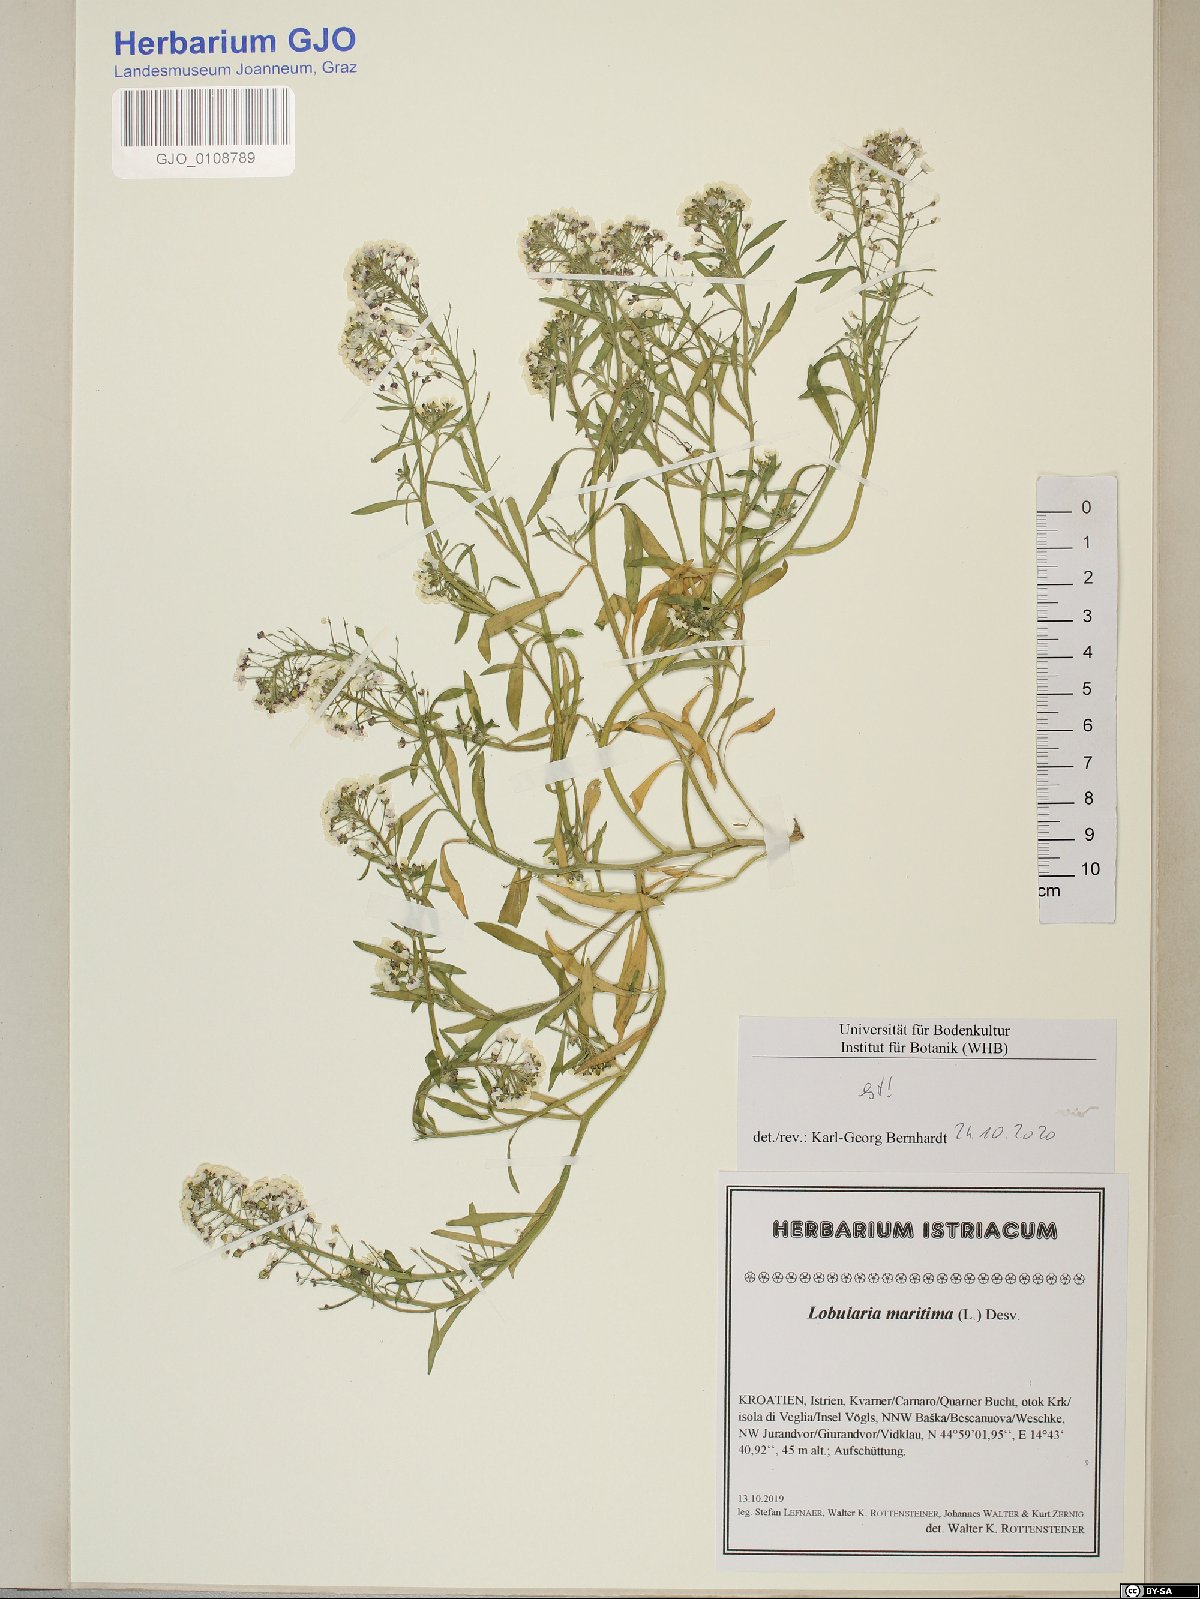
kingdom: Plantae
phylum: Tracheophyta
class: Magnoliopsida
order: Brassicales
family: Brassicaceae
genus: Lobularia
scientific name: Lobularia maritima
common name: Sweet alison
